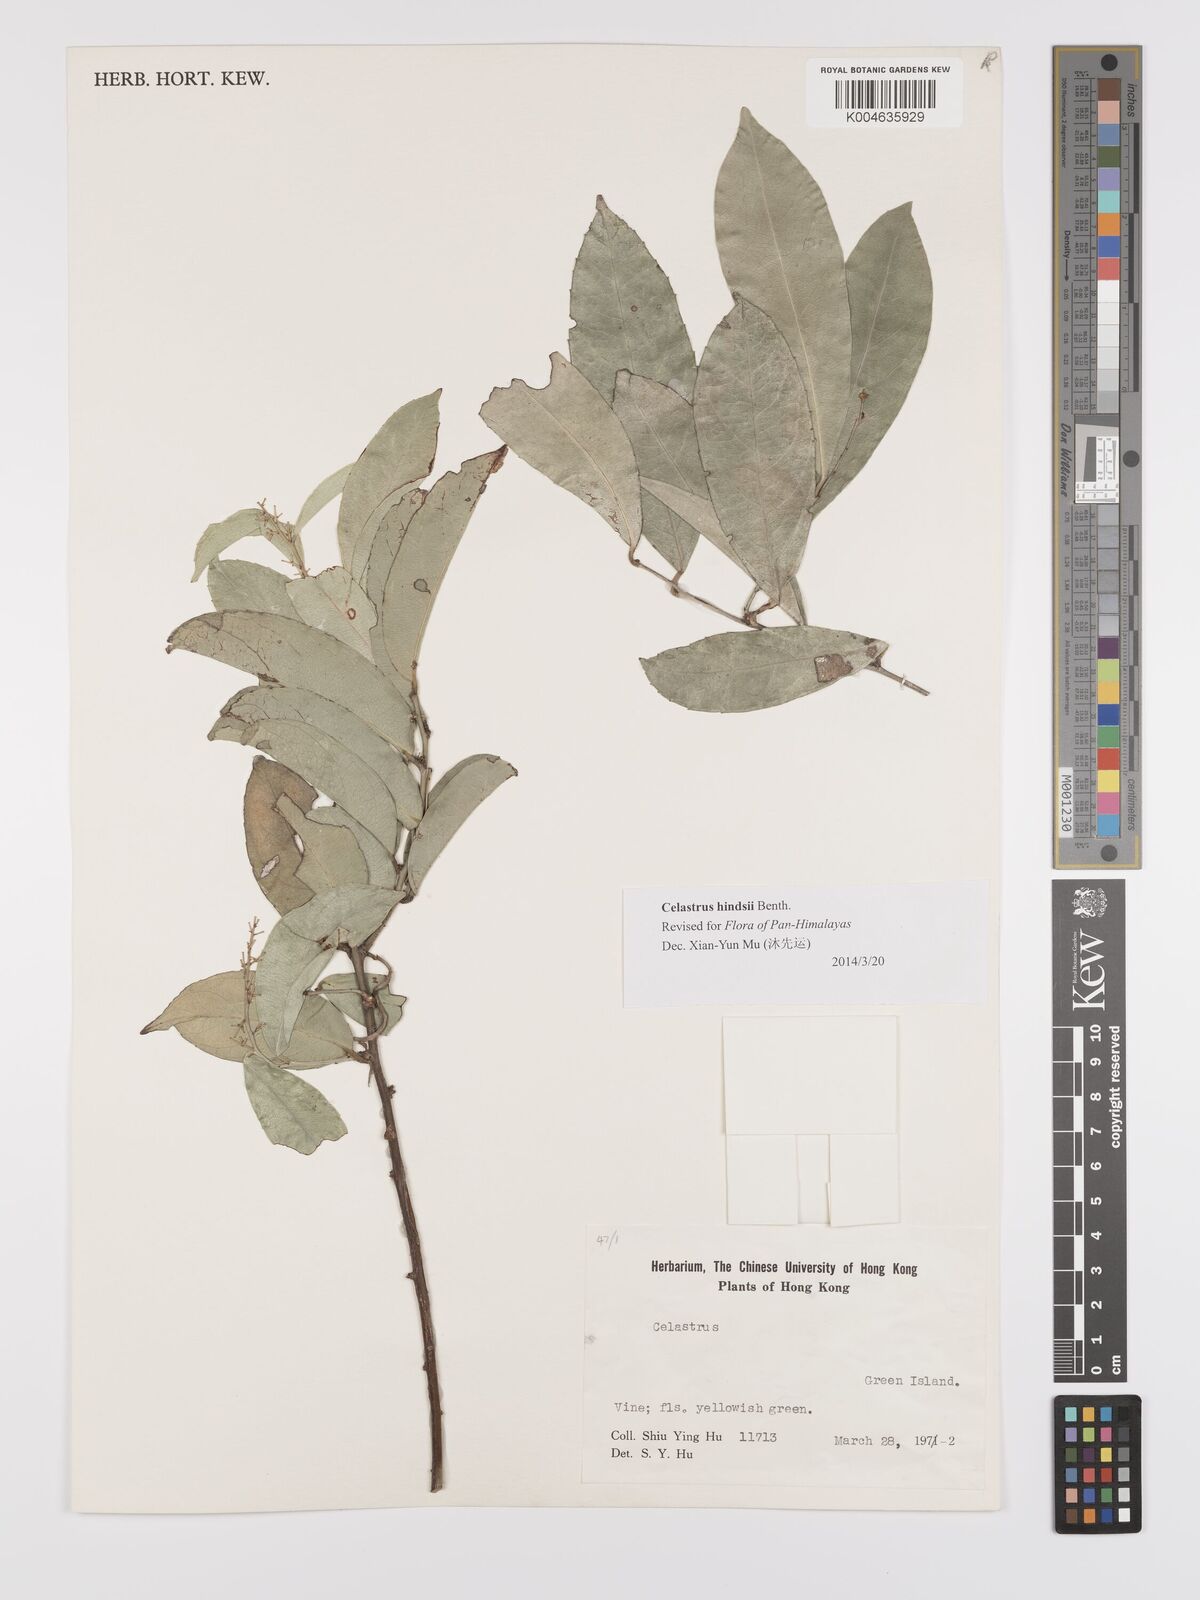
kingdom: Plantae
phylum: Tracheophyta
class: Magnoliopsida
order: Celastrales
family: Celastraceae
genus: Celastrus
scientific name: Celastrus hindsii
